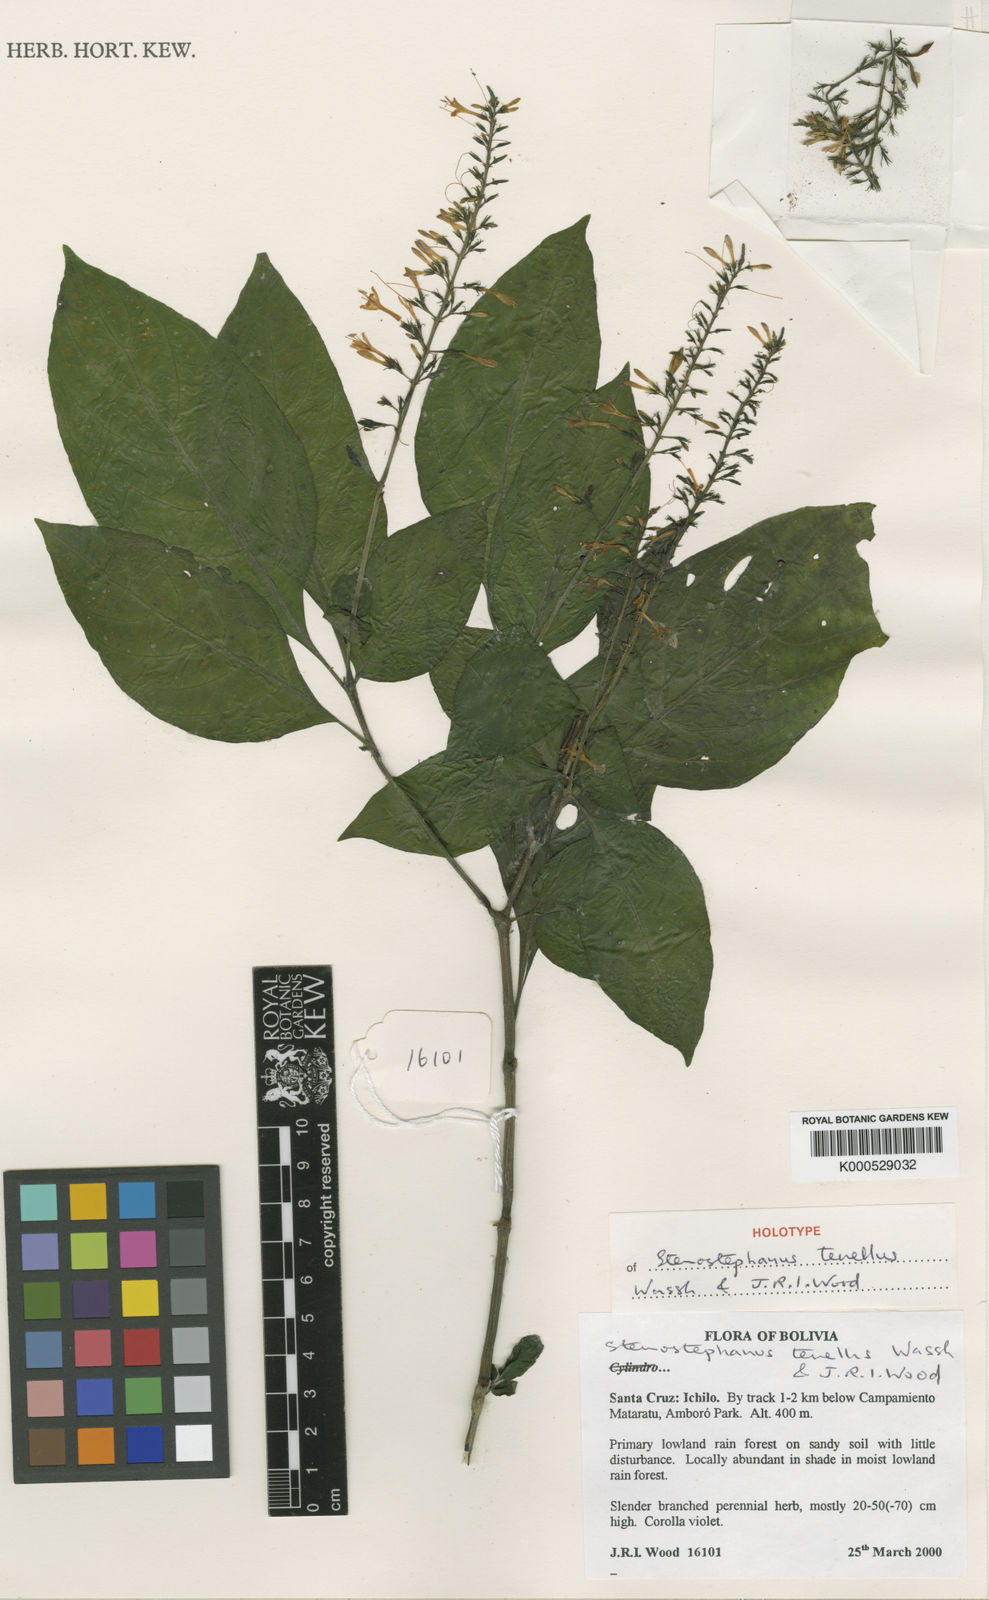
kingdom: Plantae
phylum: Tracheophyta
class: Magnoliopsida
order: Lamiales
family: Acanthaceae
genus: Stenostephanus
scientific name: Stenostephanus tenellus
